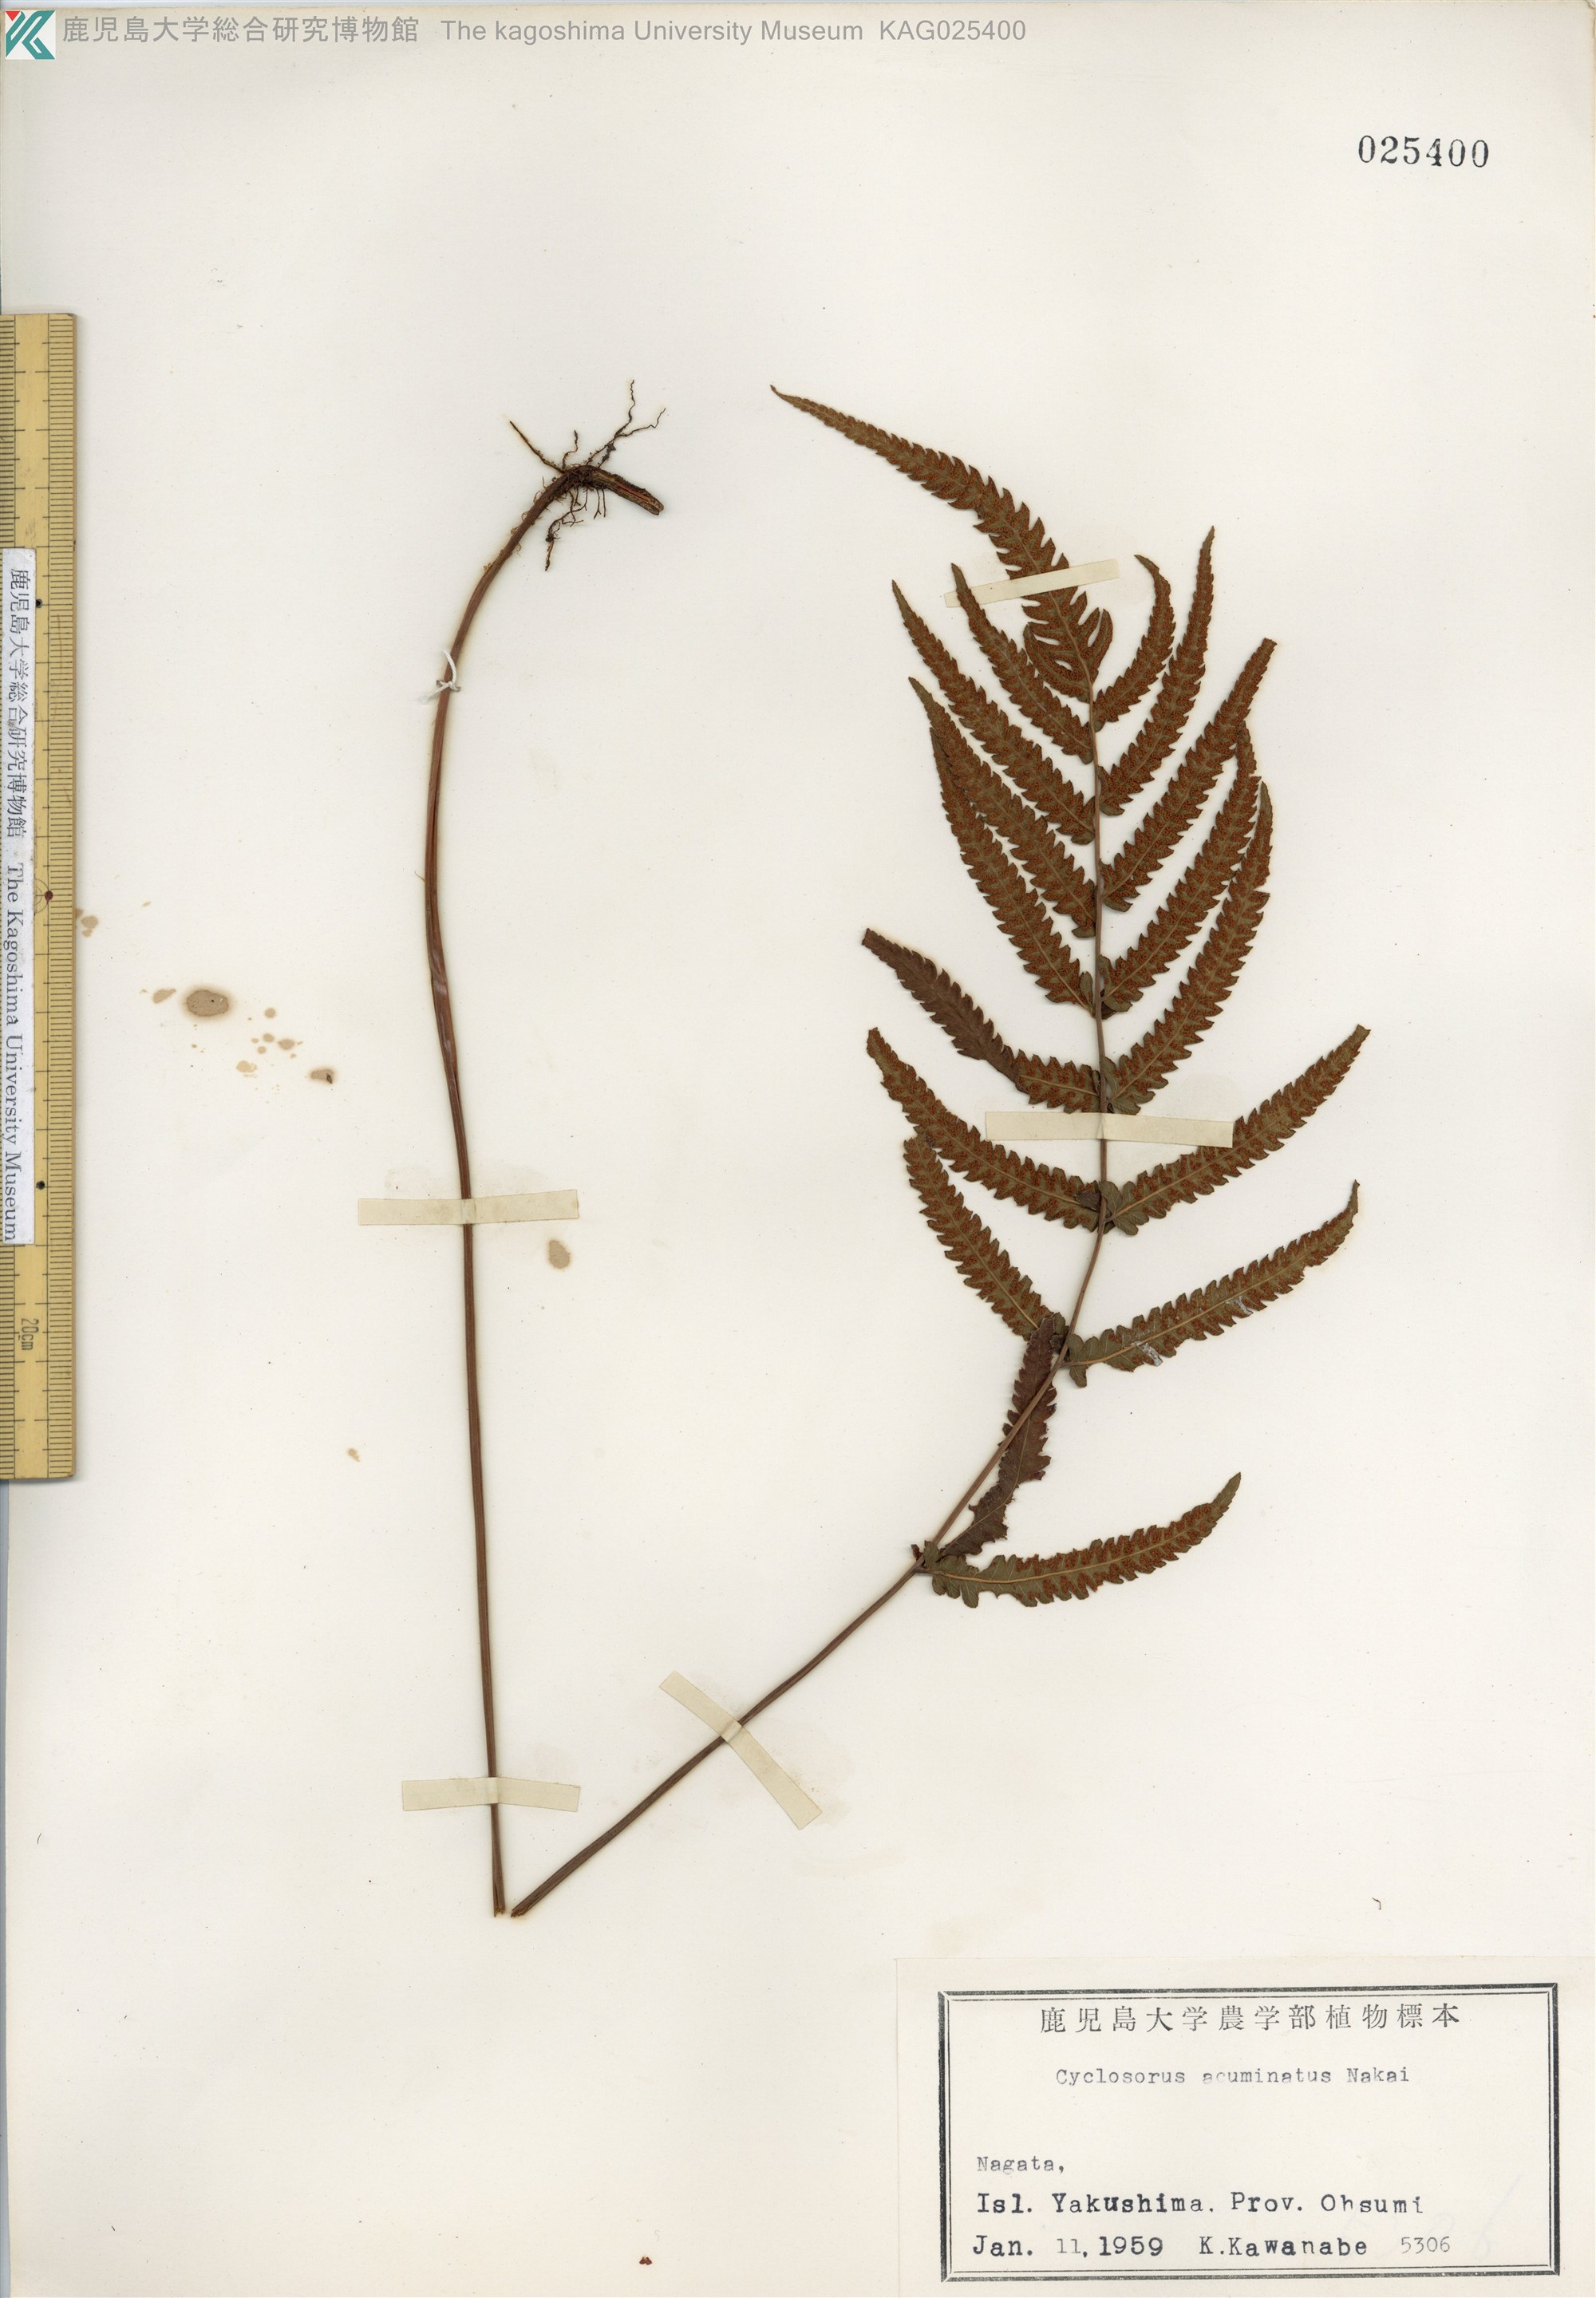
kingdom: Plantae
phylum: Tracheophyta
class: Polypodiopsida
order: Polypodiales
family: Thelypteridaceae
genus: Christella
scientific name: Christella acuminata
